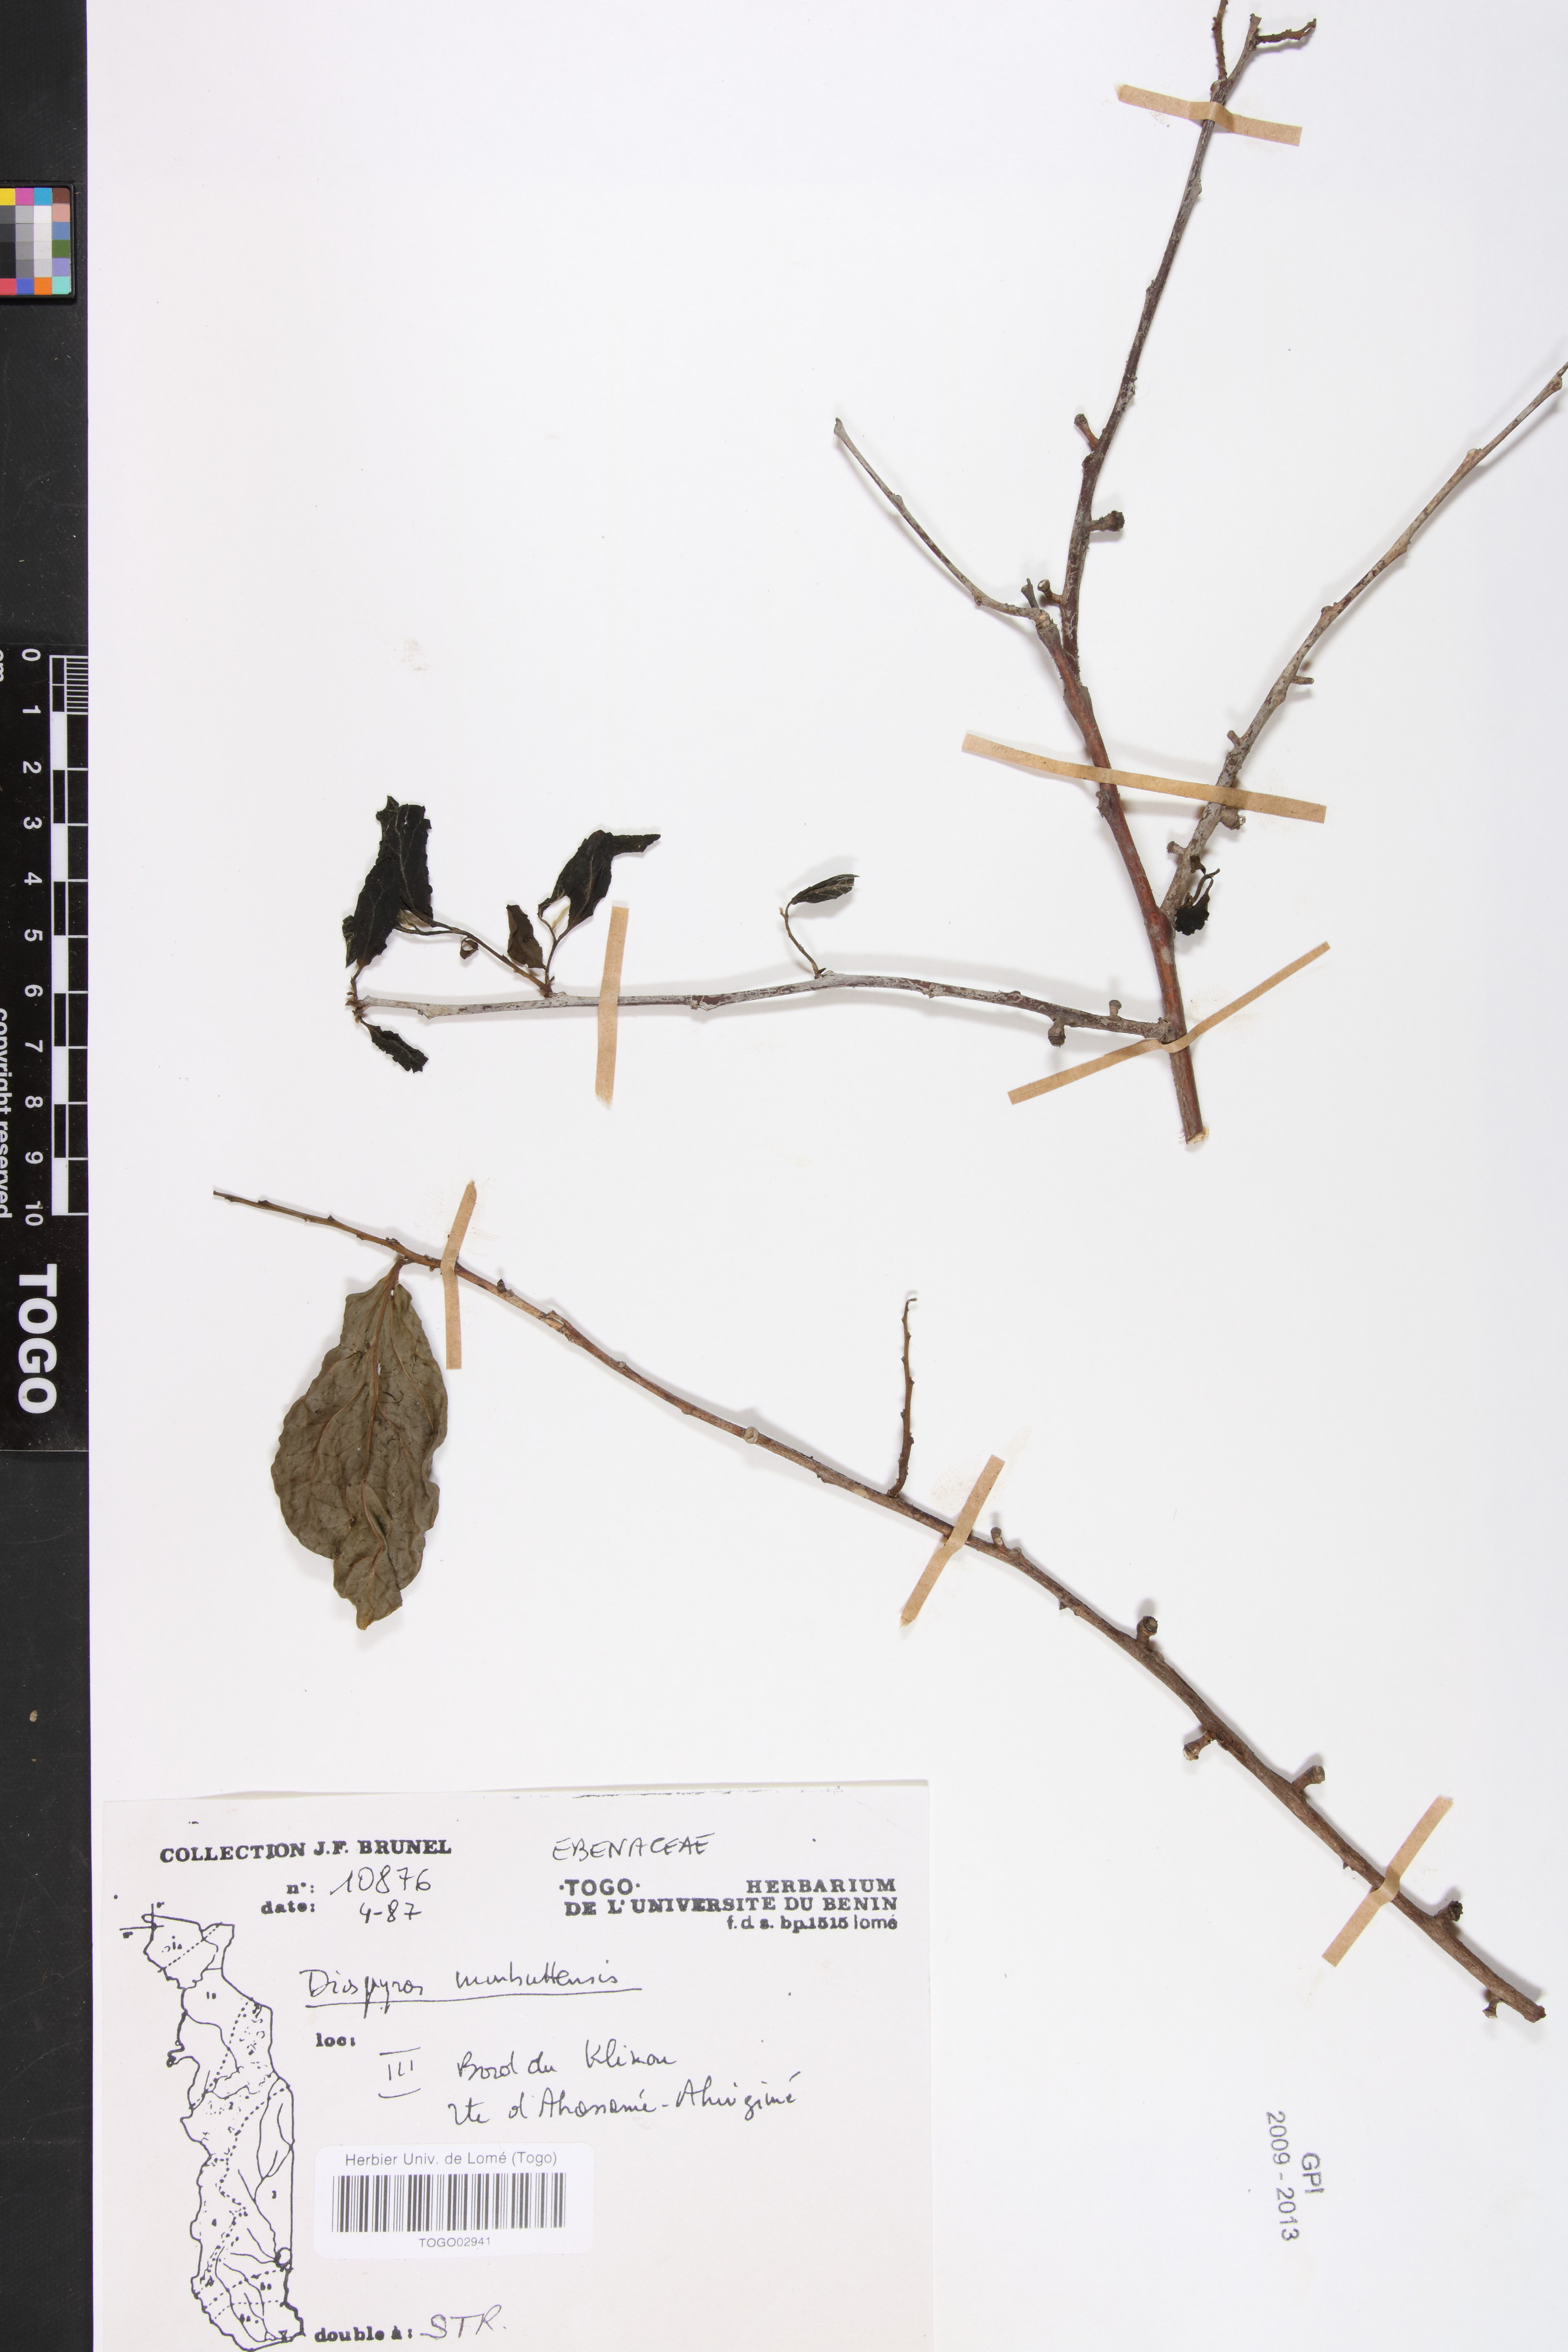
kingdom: Plantae
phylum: Tracheophyta
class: Magnoliopsida
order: Ericales
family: Ebenaceae
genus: Diospyros
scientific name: Diospyros monbuttensis
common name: Walking-stick ebony
